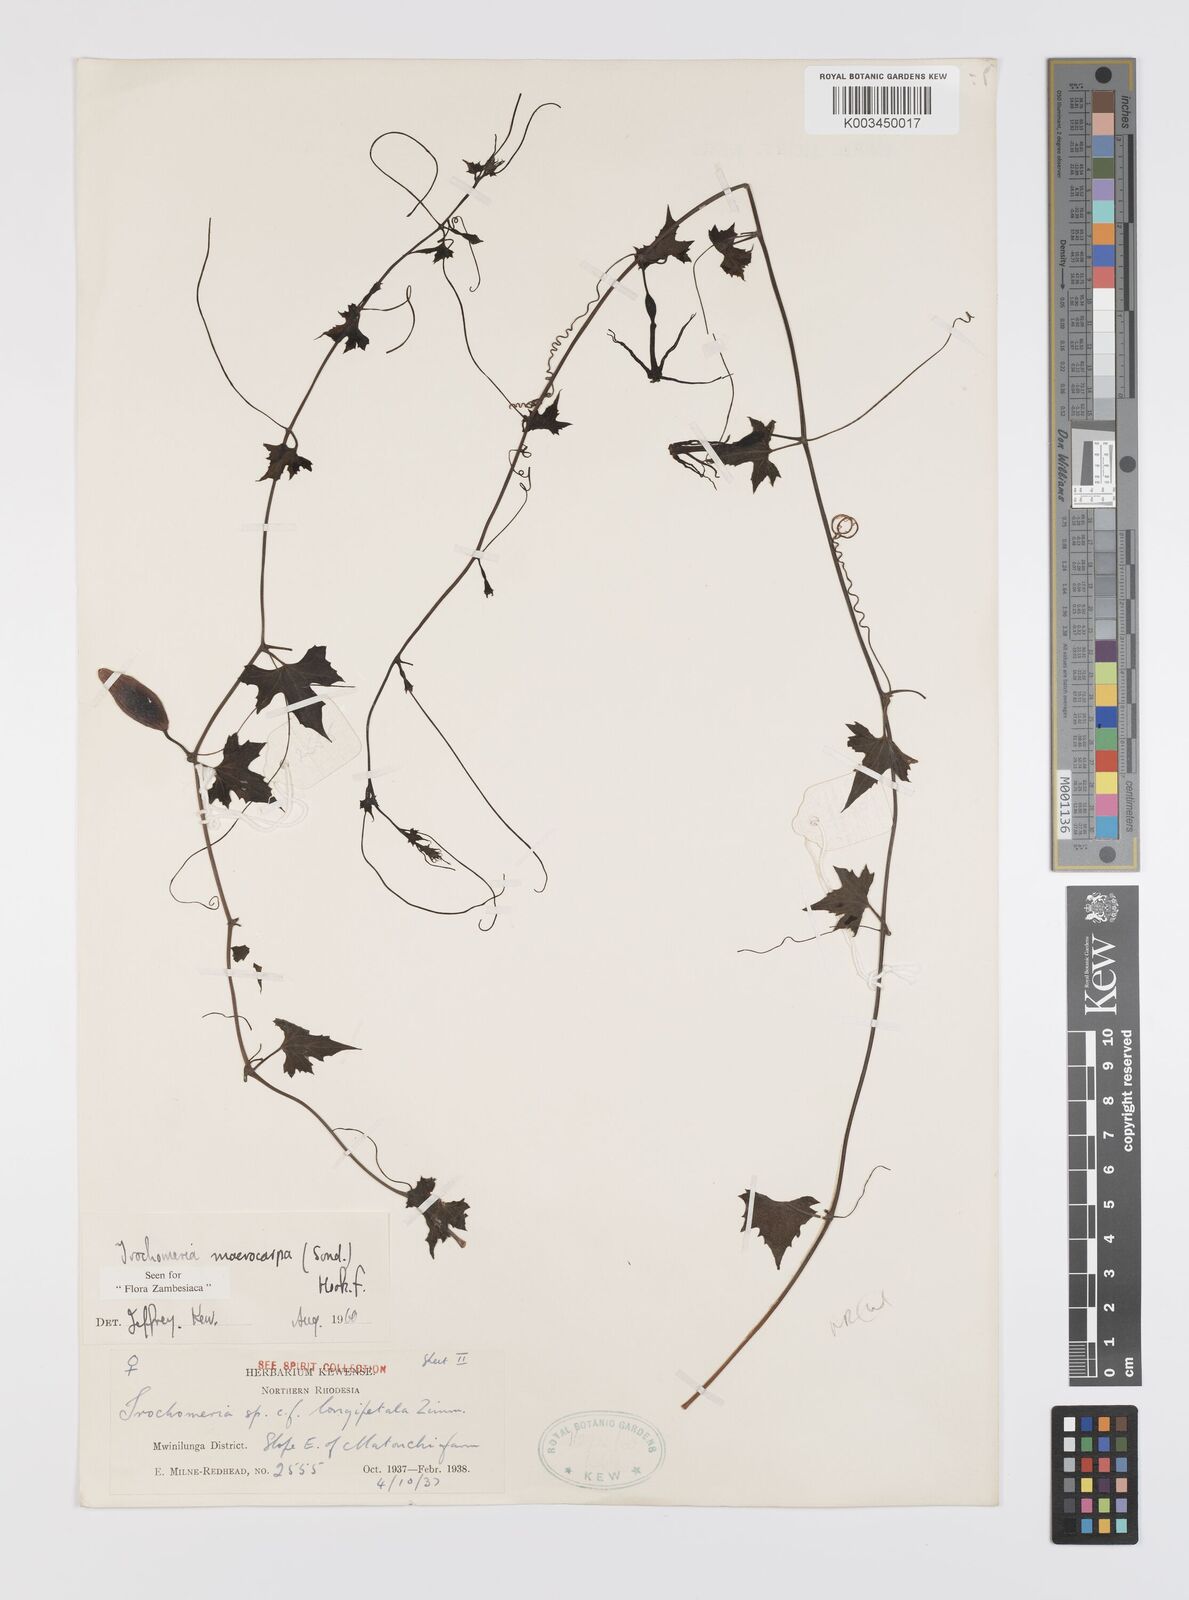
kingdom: Plantae
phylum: Tracheophyta
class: Magnoliopsida
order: Cucurbitales
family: Cucurbitaceae
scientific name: Cucurbitaceae
